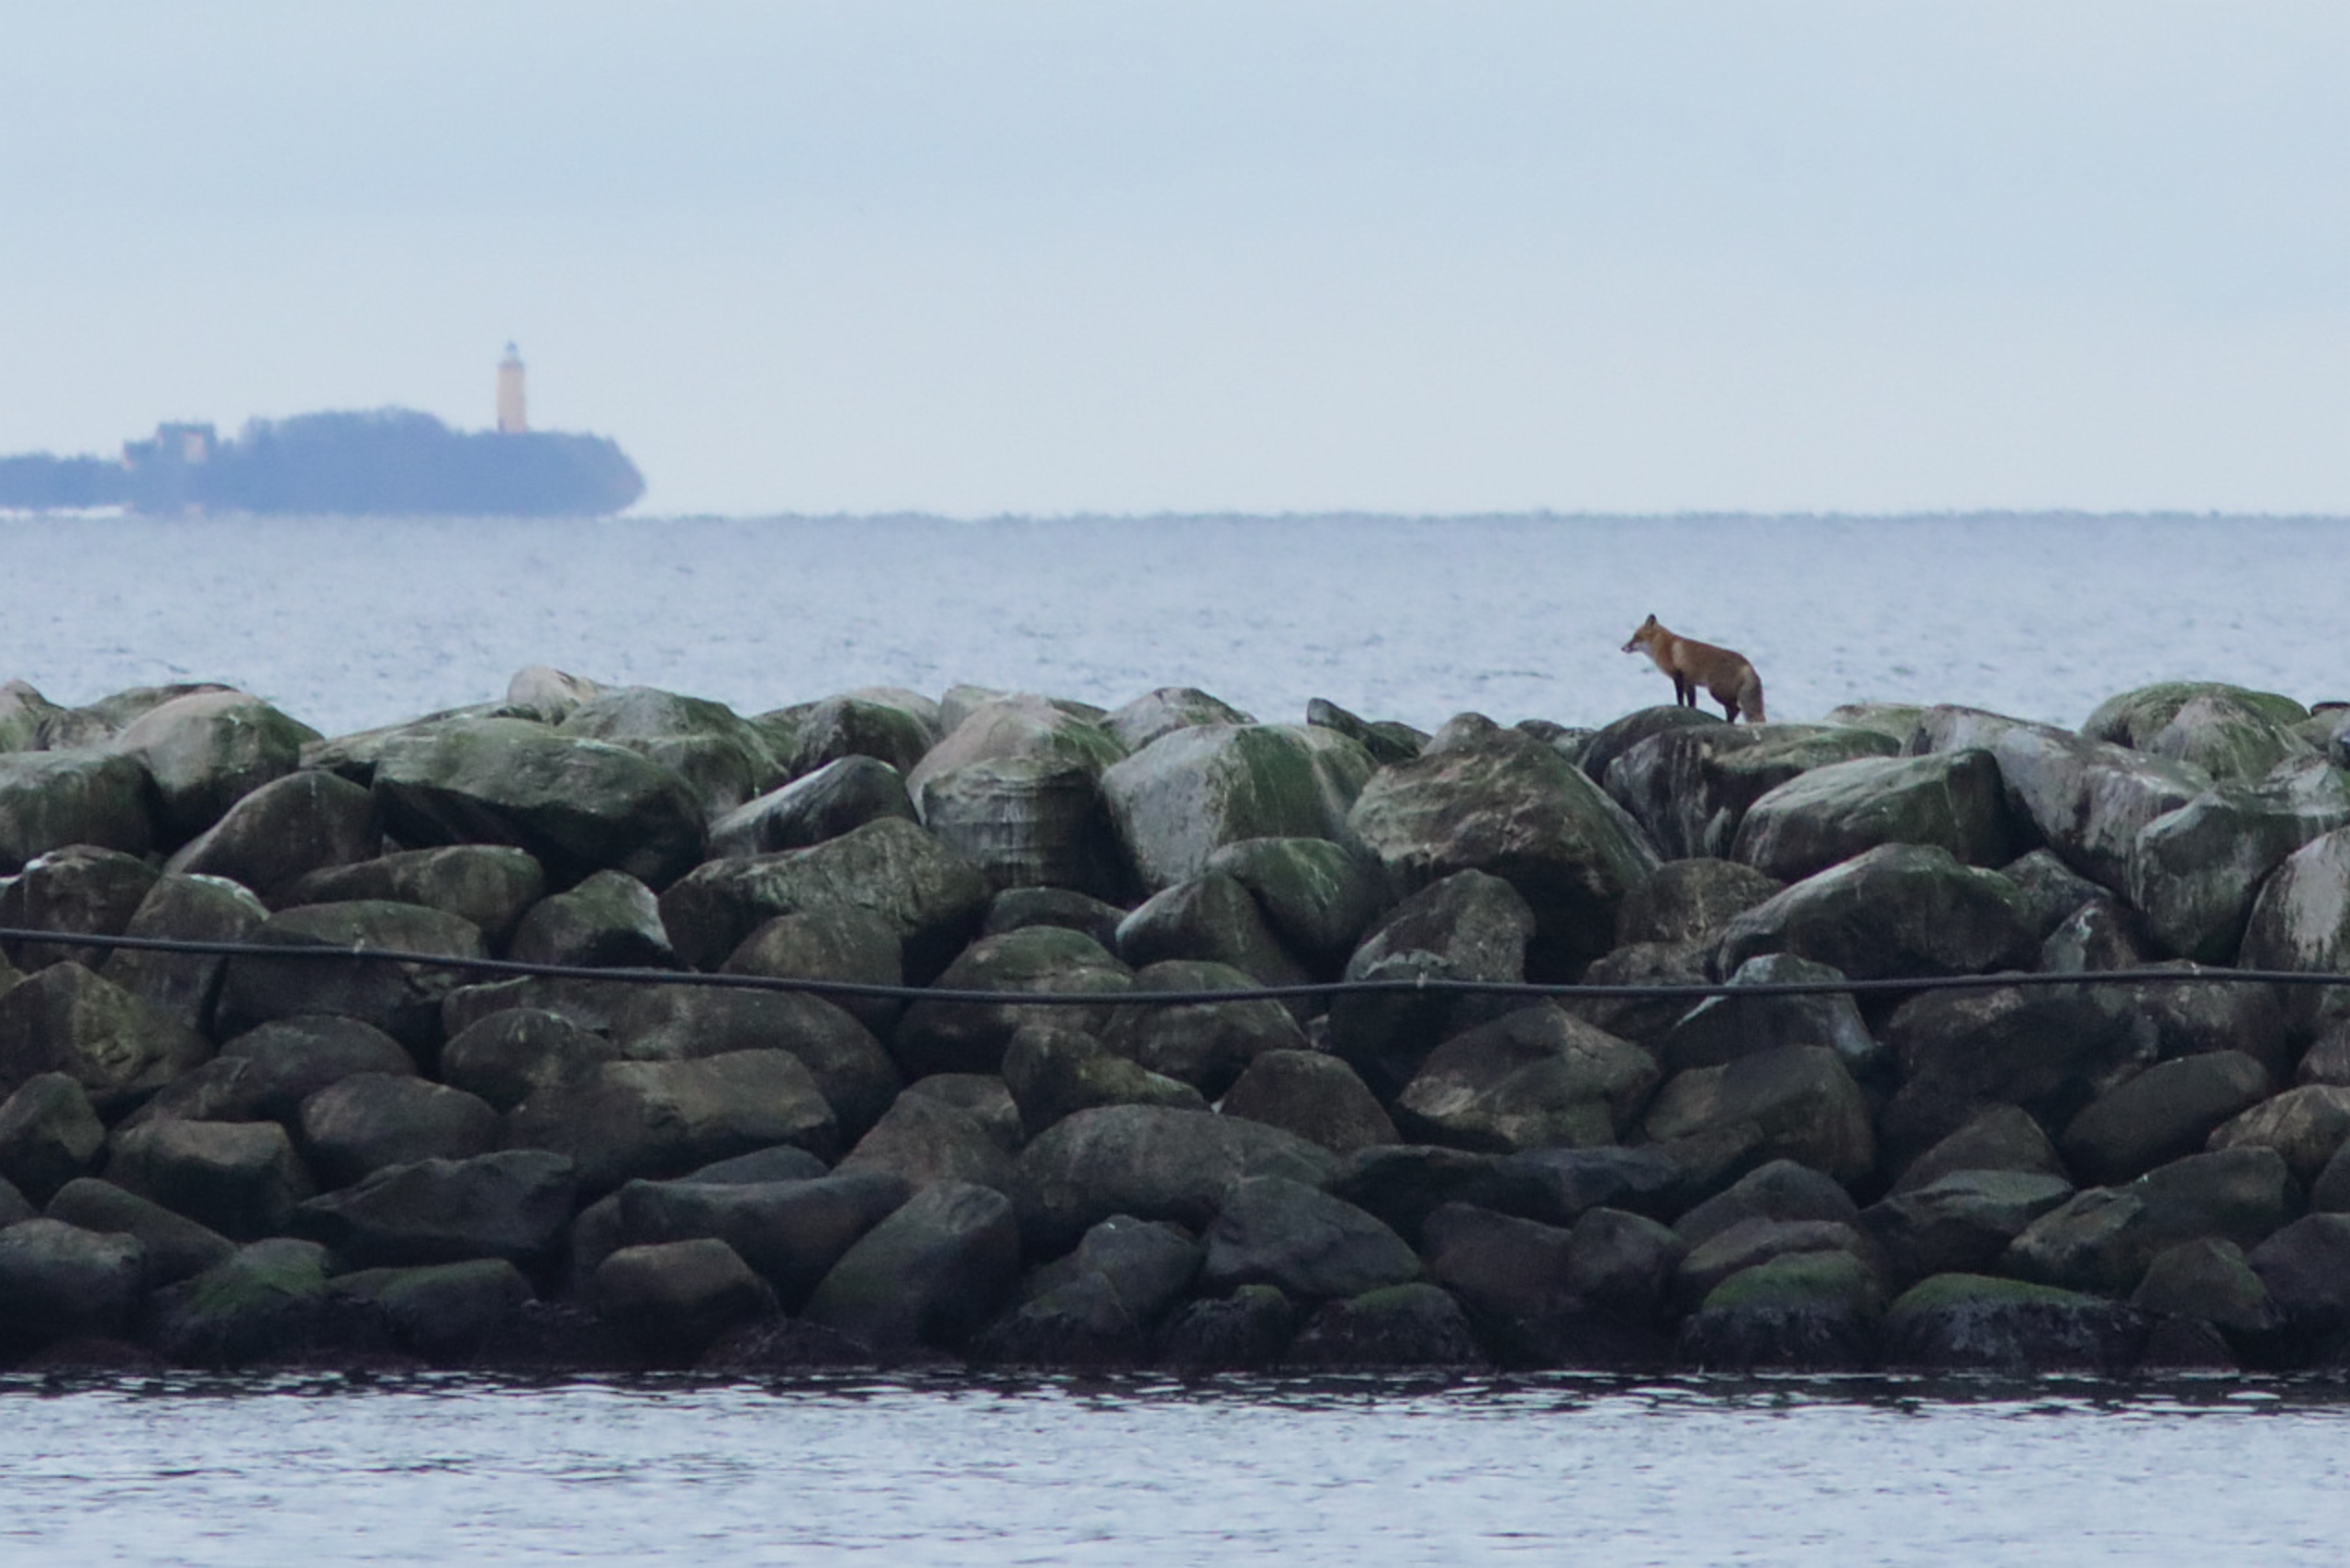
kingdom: Animalia
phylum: Chordata
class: Mammalia
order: Carnivora
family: Canidae
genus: Vulpes
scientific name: Vulpes vulpes
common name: Ræv
